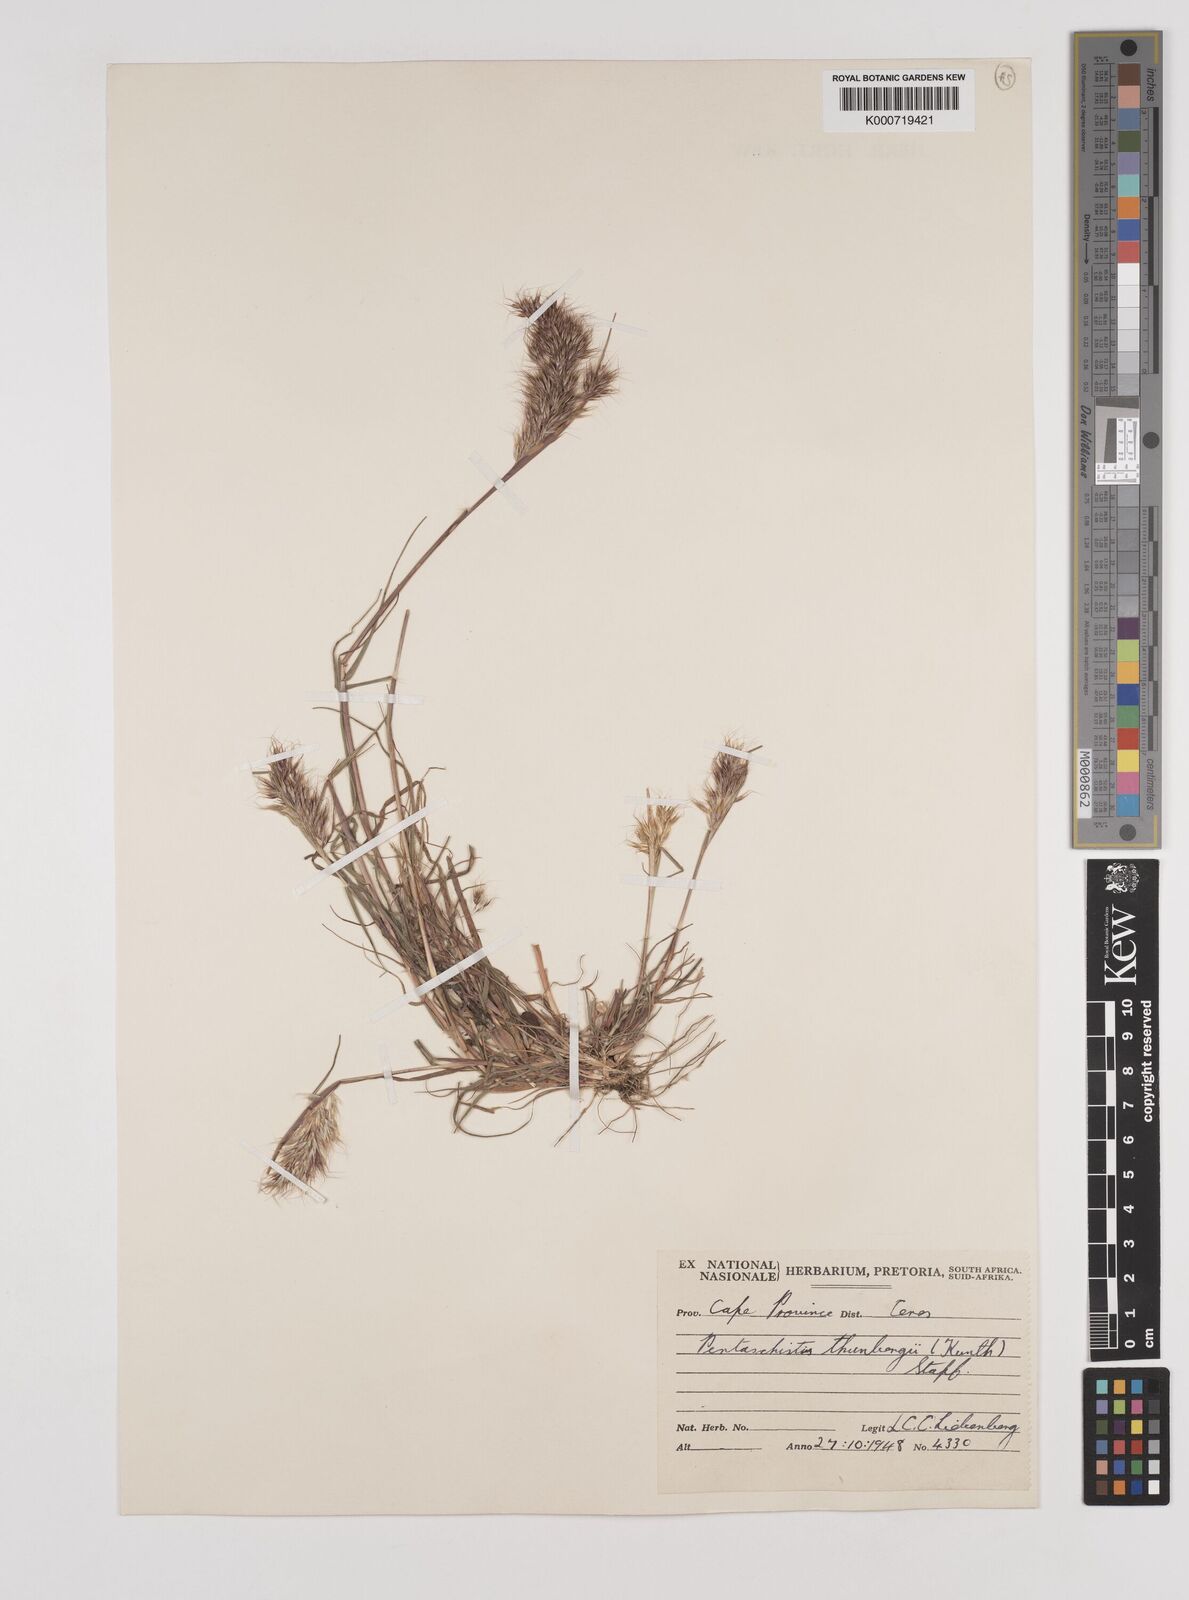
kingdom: Plantae
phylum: Tracheophyta
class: Liliopsida
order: Poales
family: Poaceae
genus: Pentameris
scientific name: Pentameris triseta
